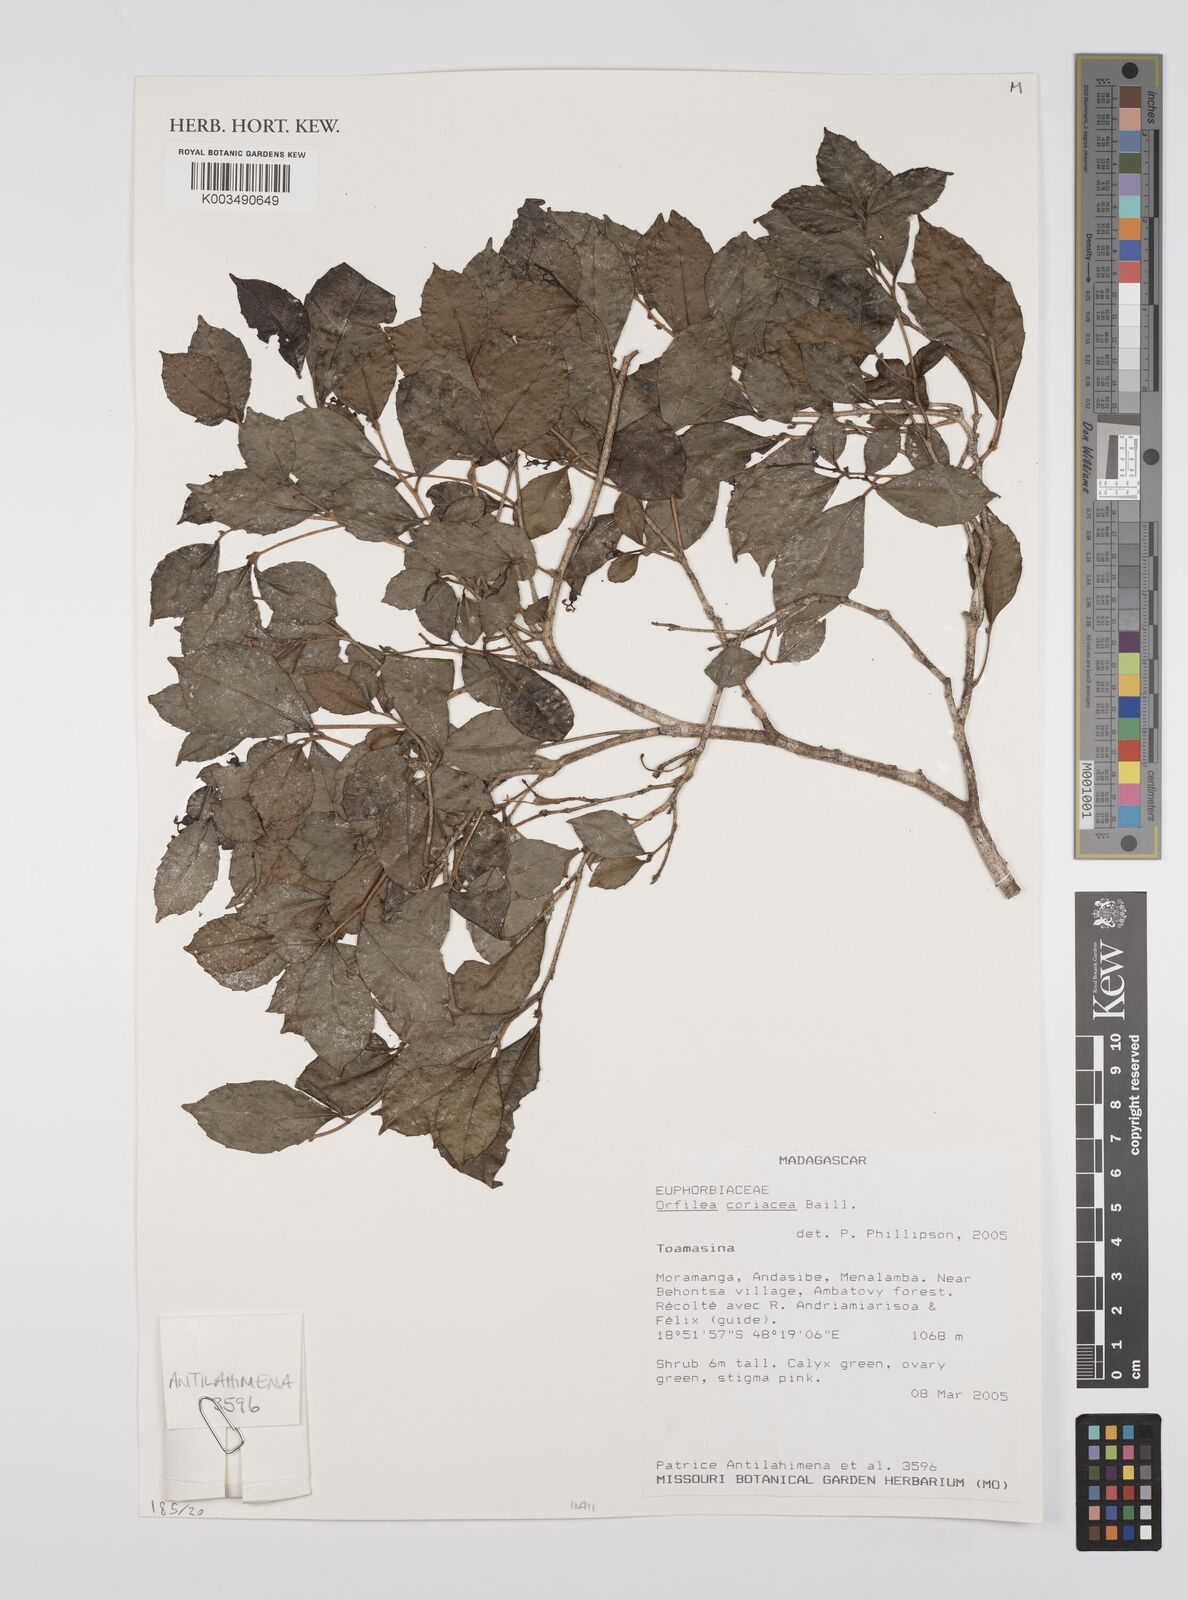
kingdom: Plantae
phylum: Tracheophyta
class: Magnoliopsida
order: Malpighiales
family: Euphorbiaceae
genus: Orfilea
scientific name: Orfilea coriacea
